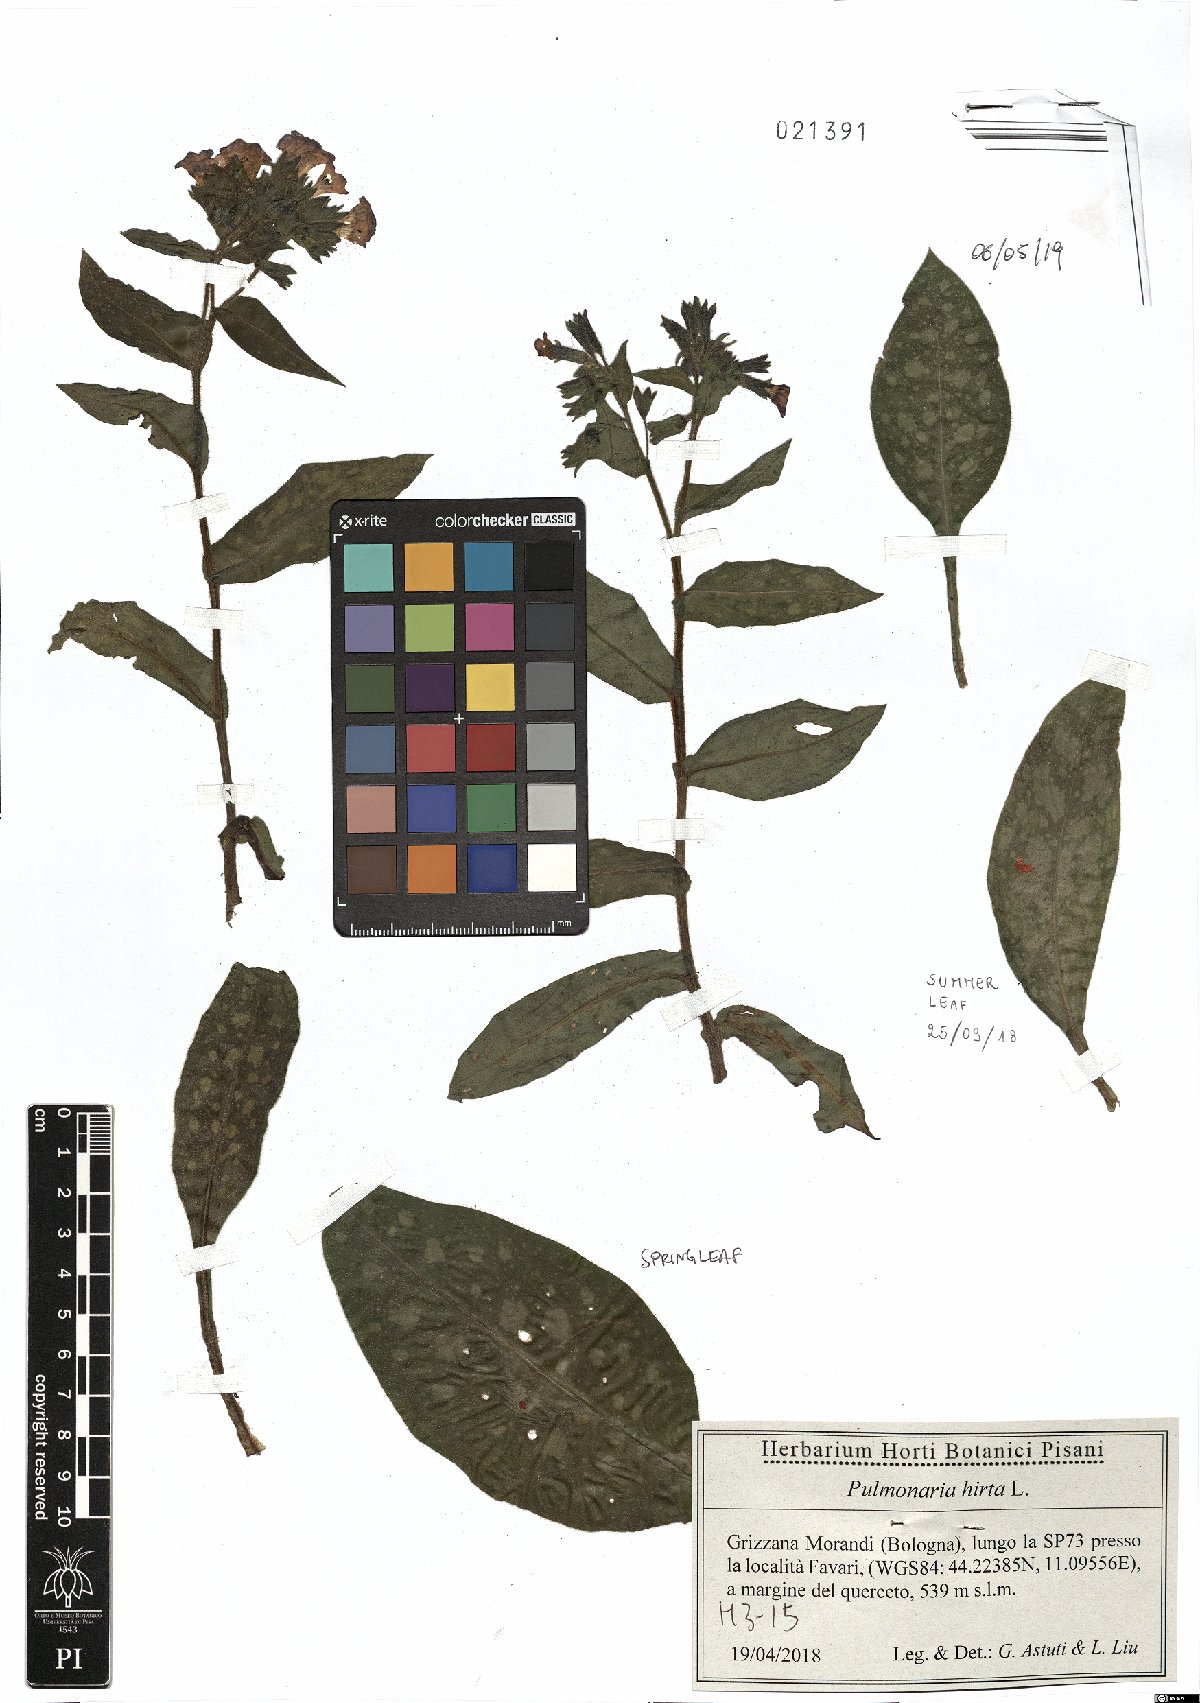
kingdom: Plantae
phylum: Tracheophyta
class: Magnoliopsida
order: Boraginales
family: Boraginaceae
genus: Pulmonaria
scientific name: Pulmonaria hirta
